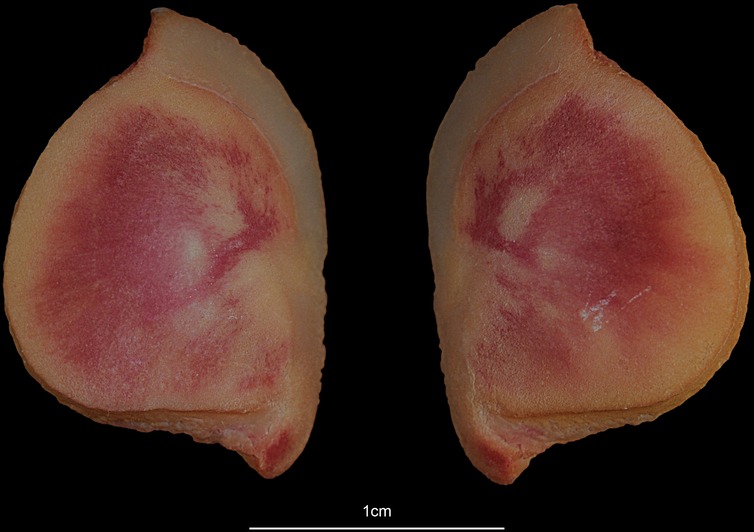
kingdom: Animalia
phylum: Chordata
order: Siluriformes
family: Ariidae
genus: Netuma
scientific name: Netuma thalassina
